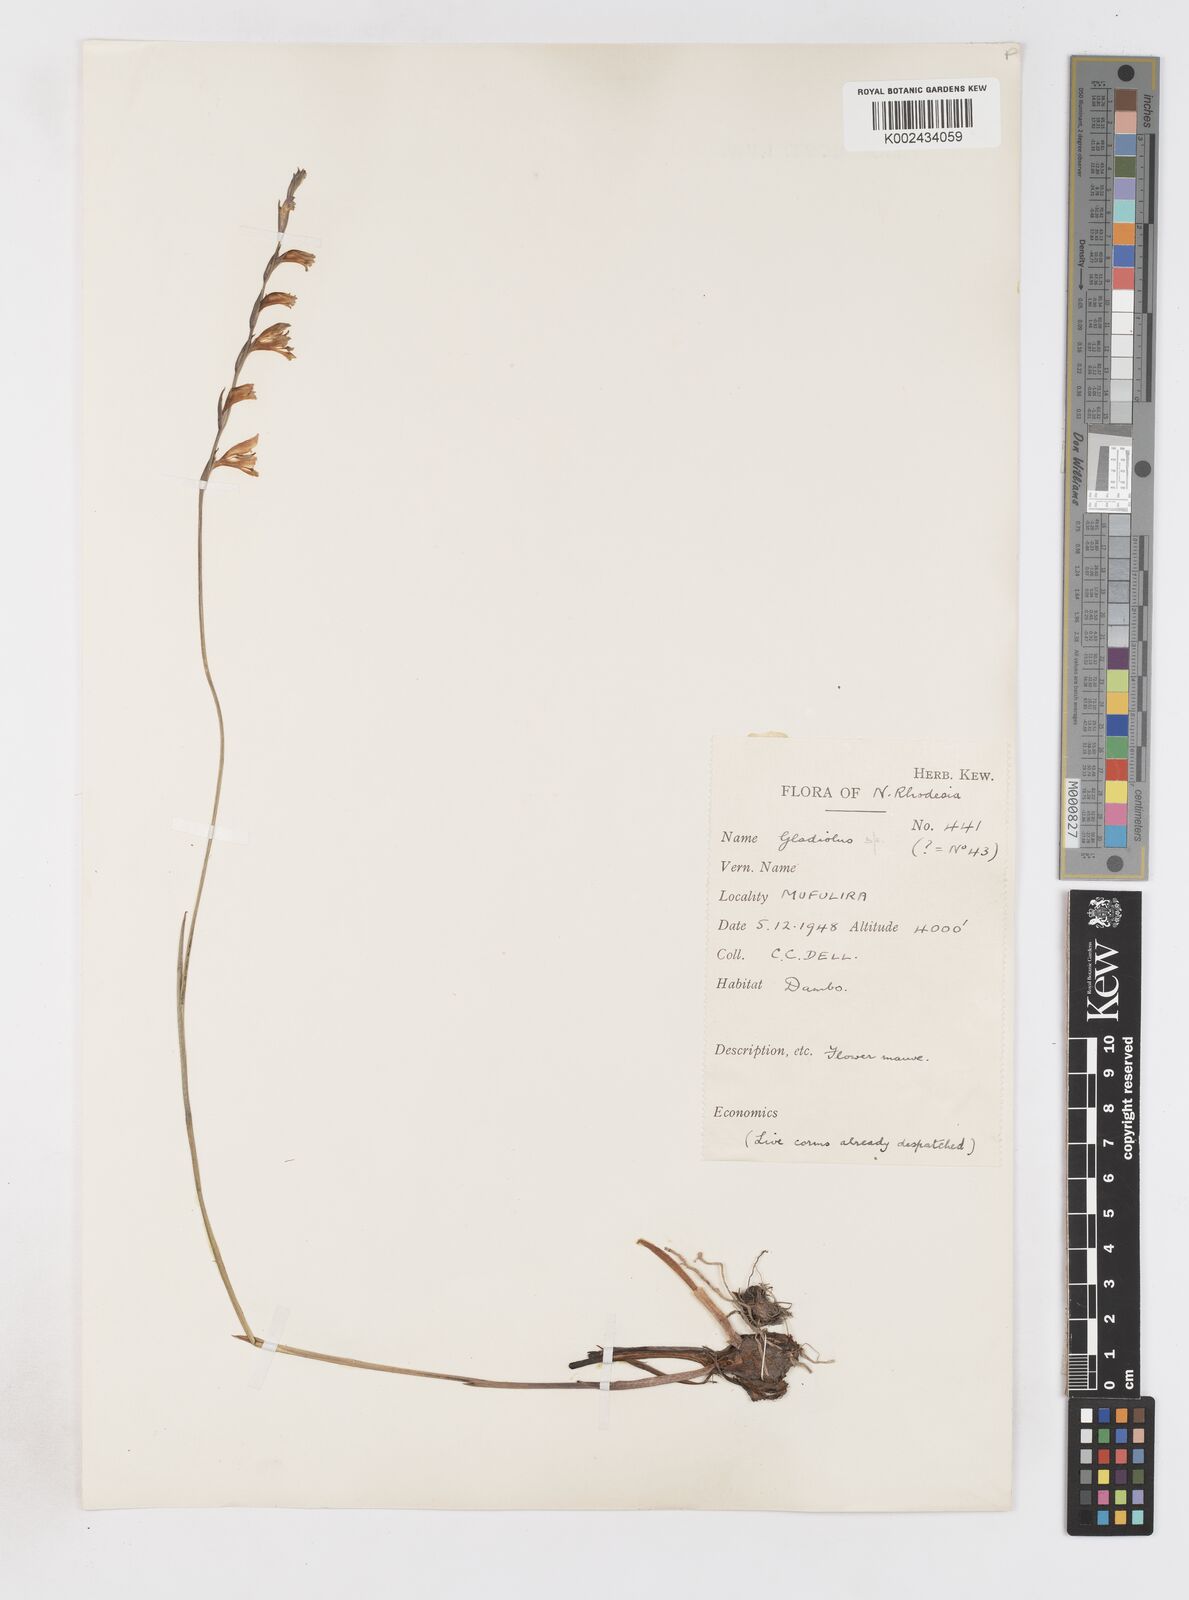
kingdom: Plantae
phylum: Tracheophyta
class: Liliopsida
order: Asparagales
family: Iridaceae
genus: Gladiolus
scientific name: Gladiolus atropurpureus
